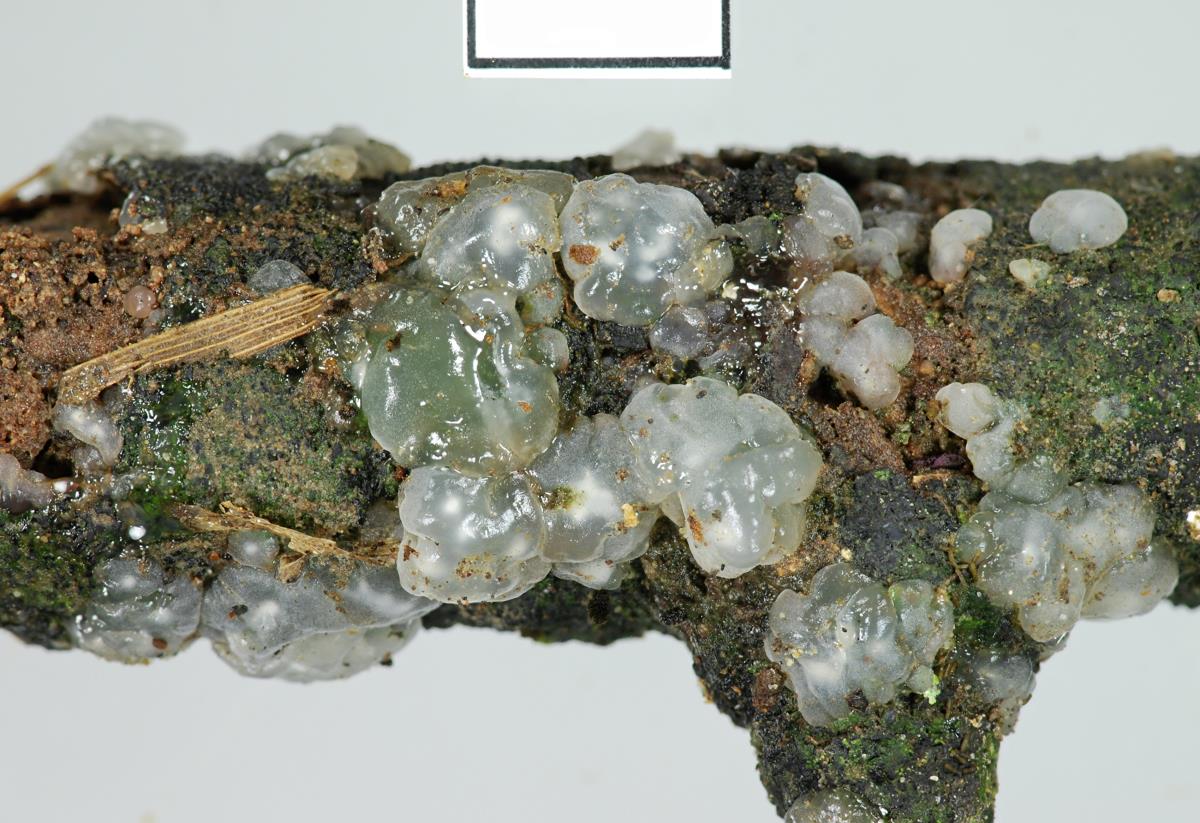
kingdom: Fungi
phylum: Basidiomycota
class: Agaricomycetes
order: Auriculariales
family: Hyaloriaceae
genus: Myxarium
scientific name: Myxarium
